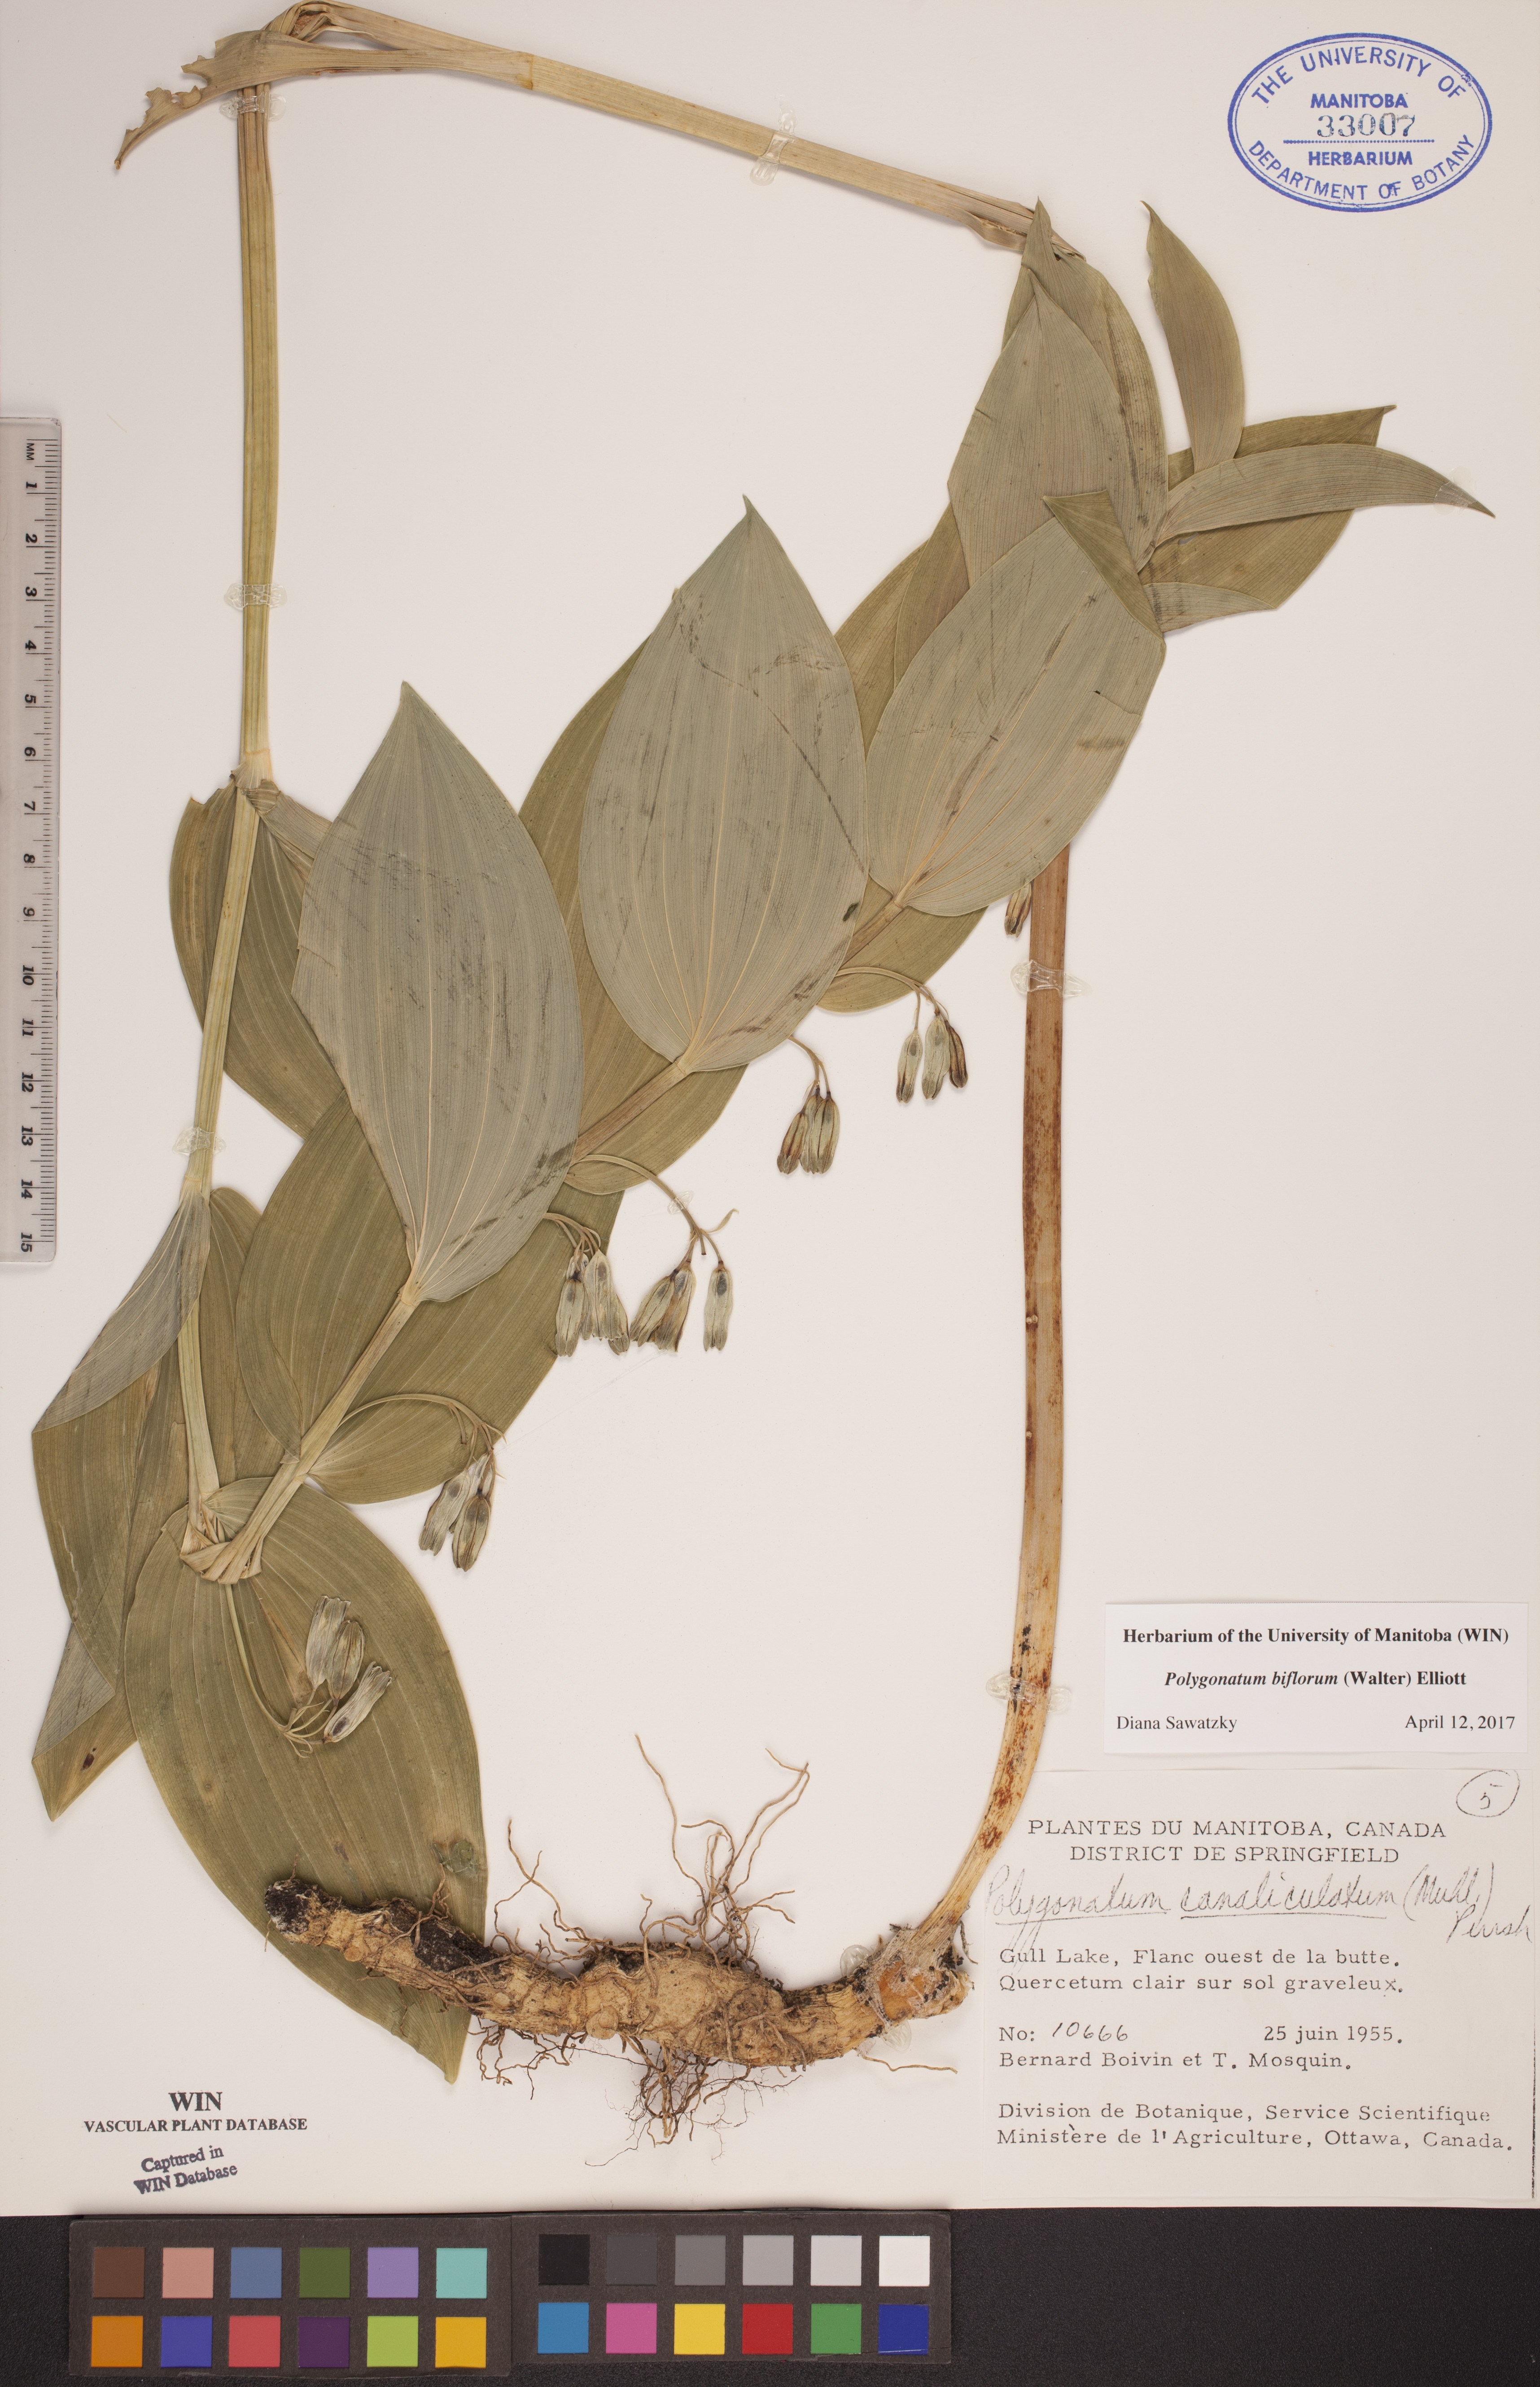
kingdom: Plantae
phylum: Tracheophyta
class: Liliopsida
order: Asparagales
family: Asparagaceae
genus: Polygonatum
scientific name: Polygonatum biflorum
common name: American solomon's-seal
